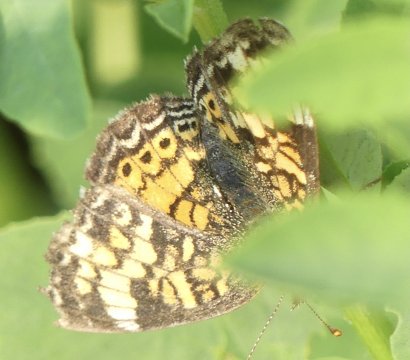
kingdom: Animalia
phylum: Arthropoda
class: Insecta
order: Lepidoptera
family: Nymphalidae
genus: Phyciodes
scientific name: Phyciodes
